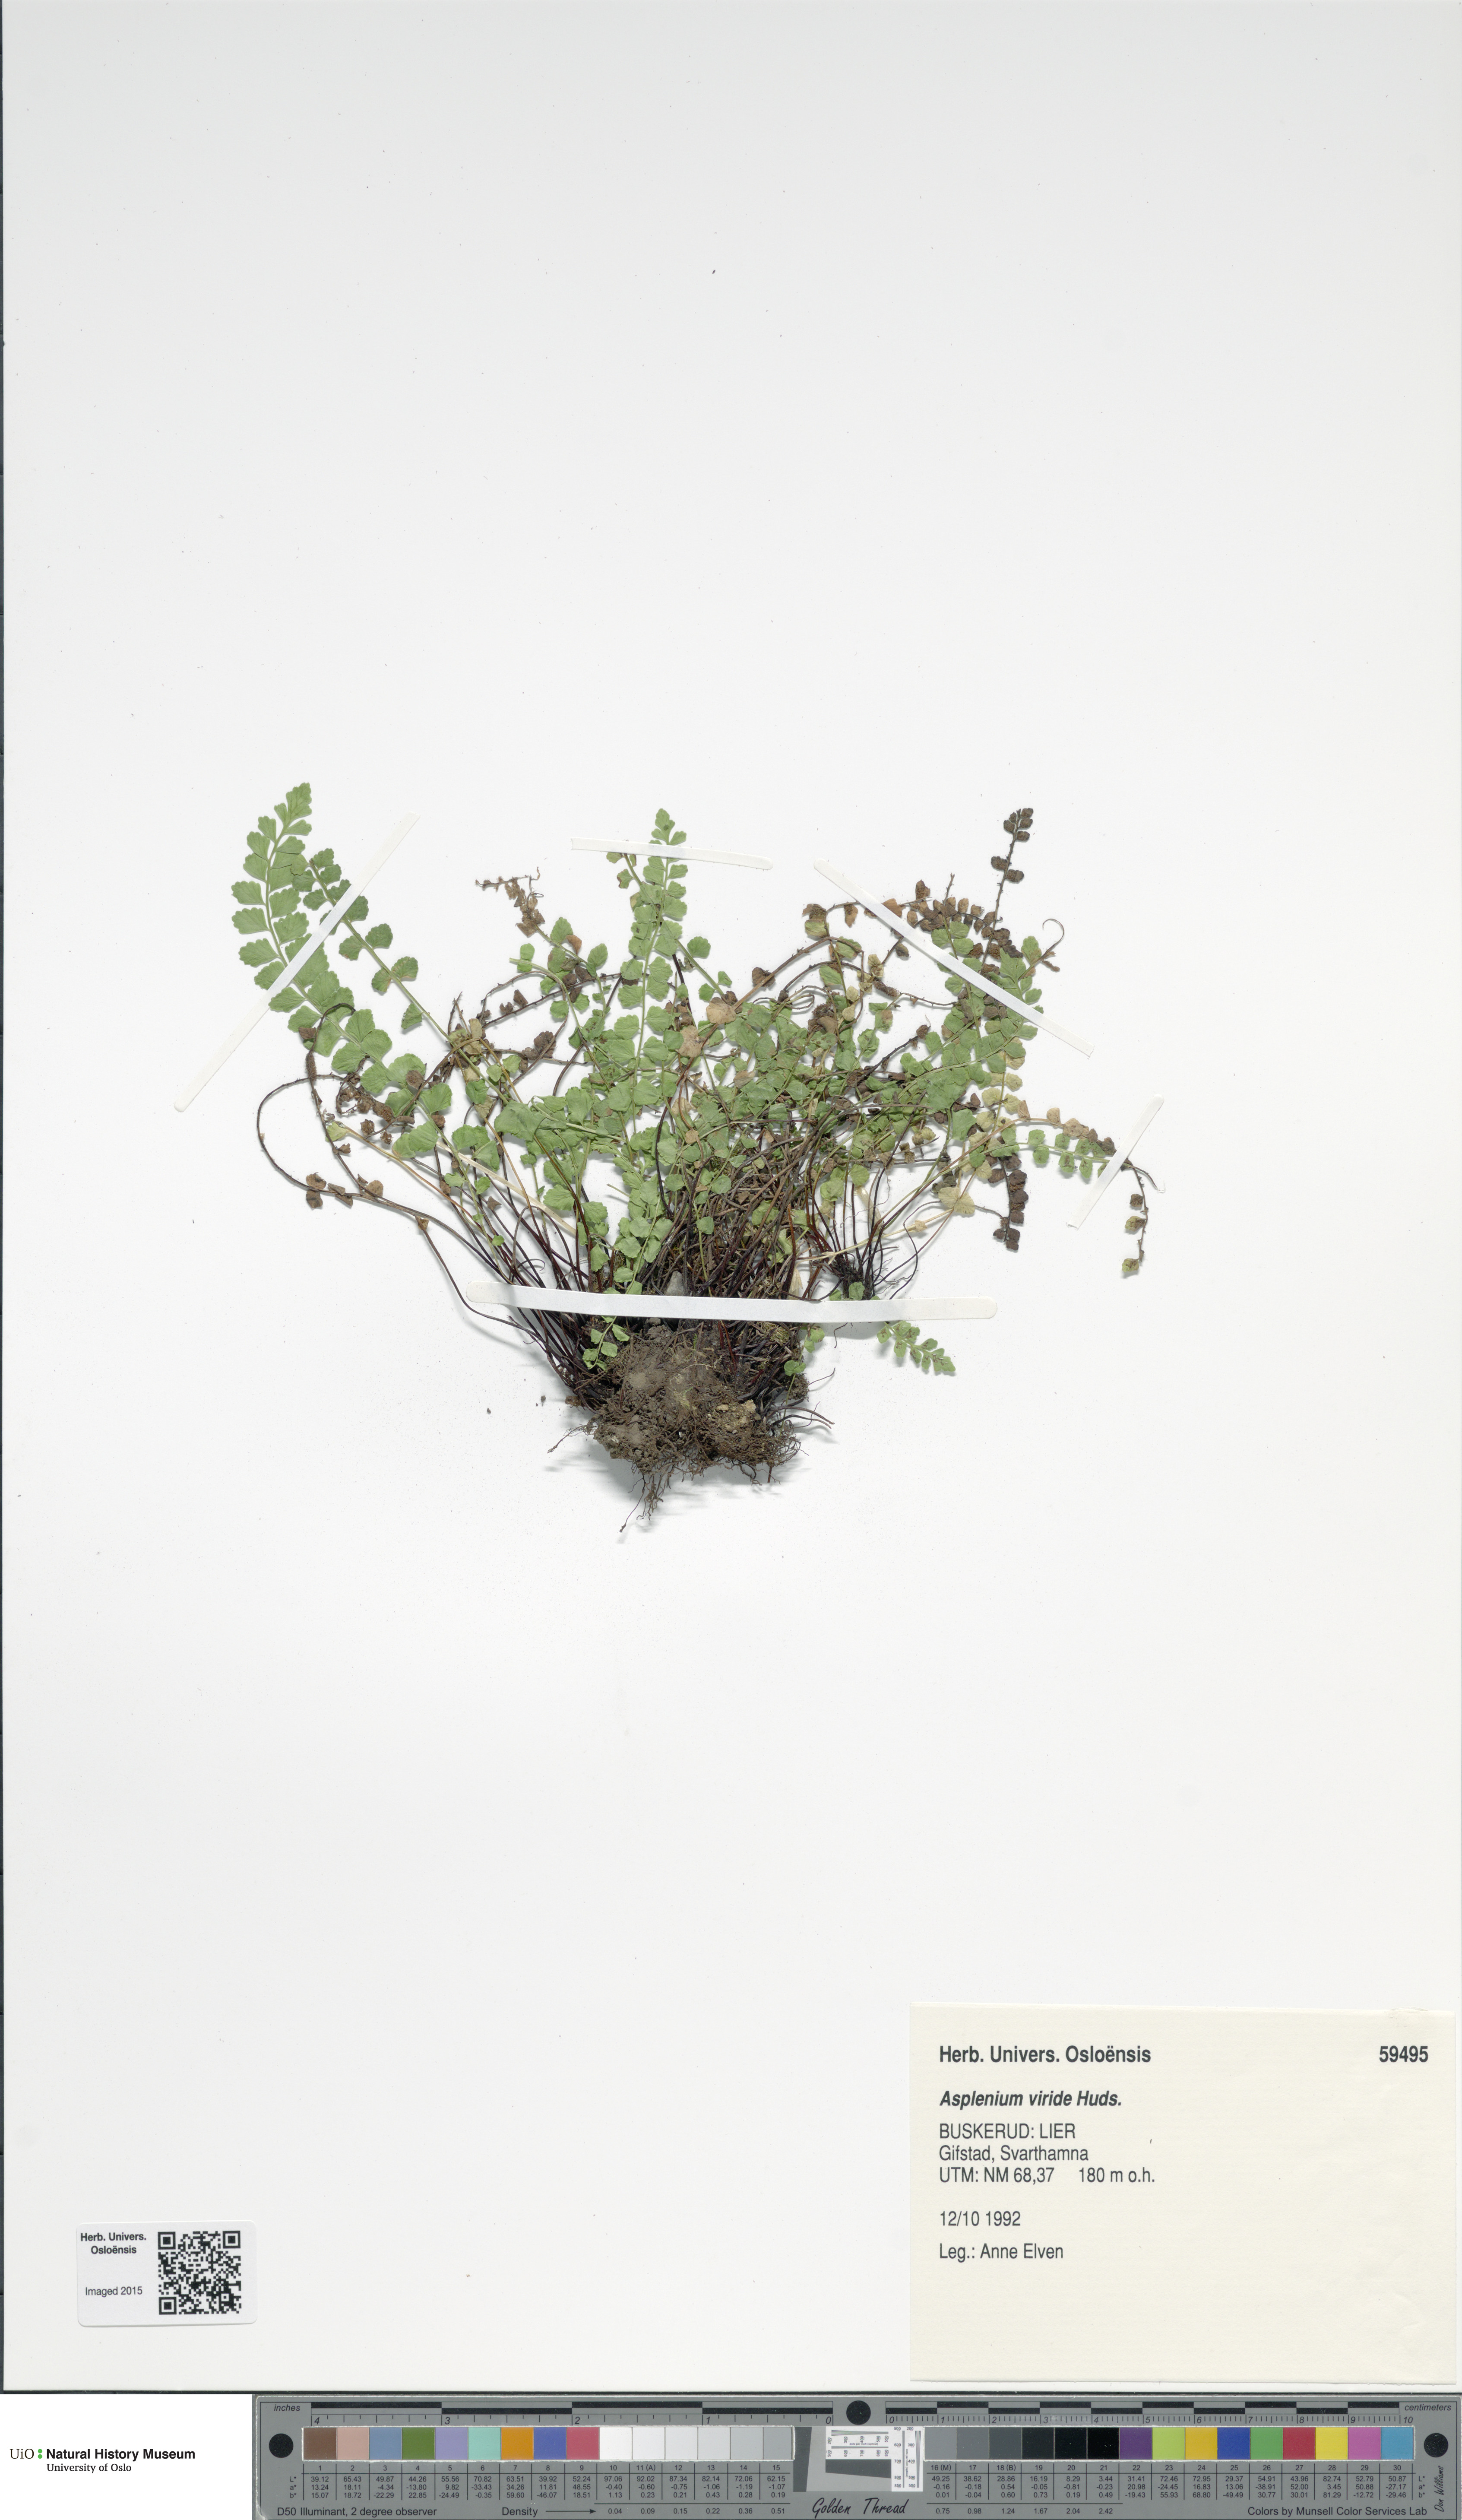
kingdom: Plantae
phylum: Tracheophyta
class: Polypodiopsida
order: Polypodiales
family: Aspleniaceae
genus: Asplenium
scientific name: Asplenium viride
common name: Green spleenwort
